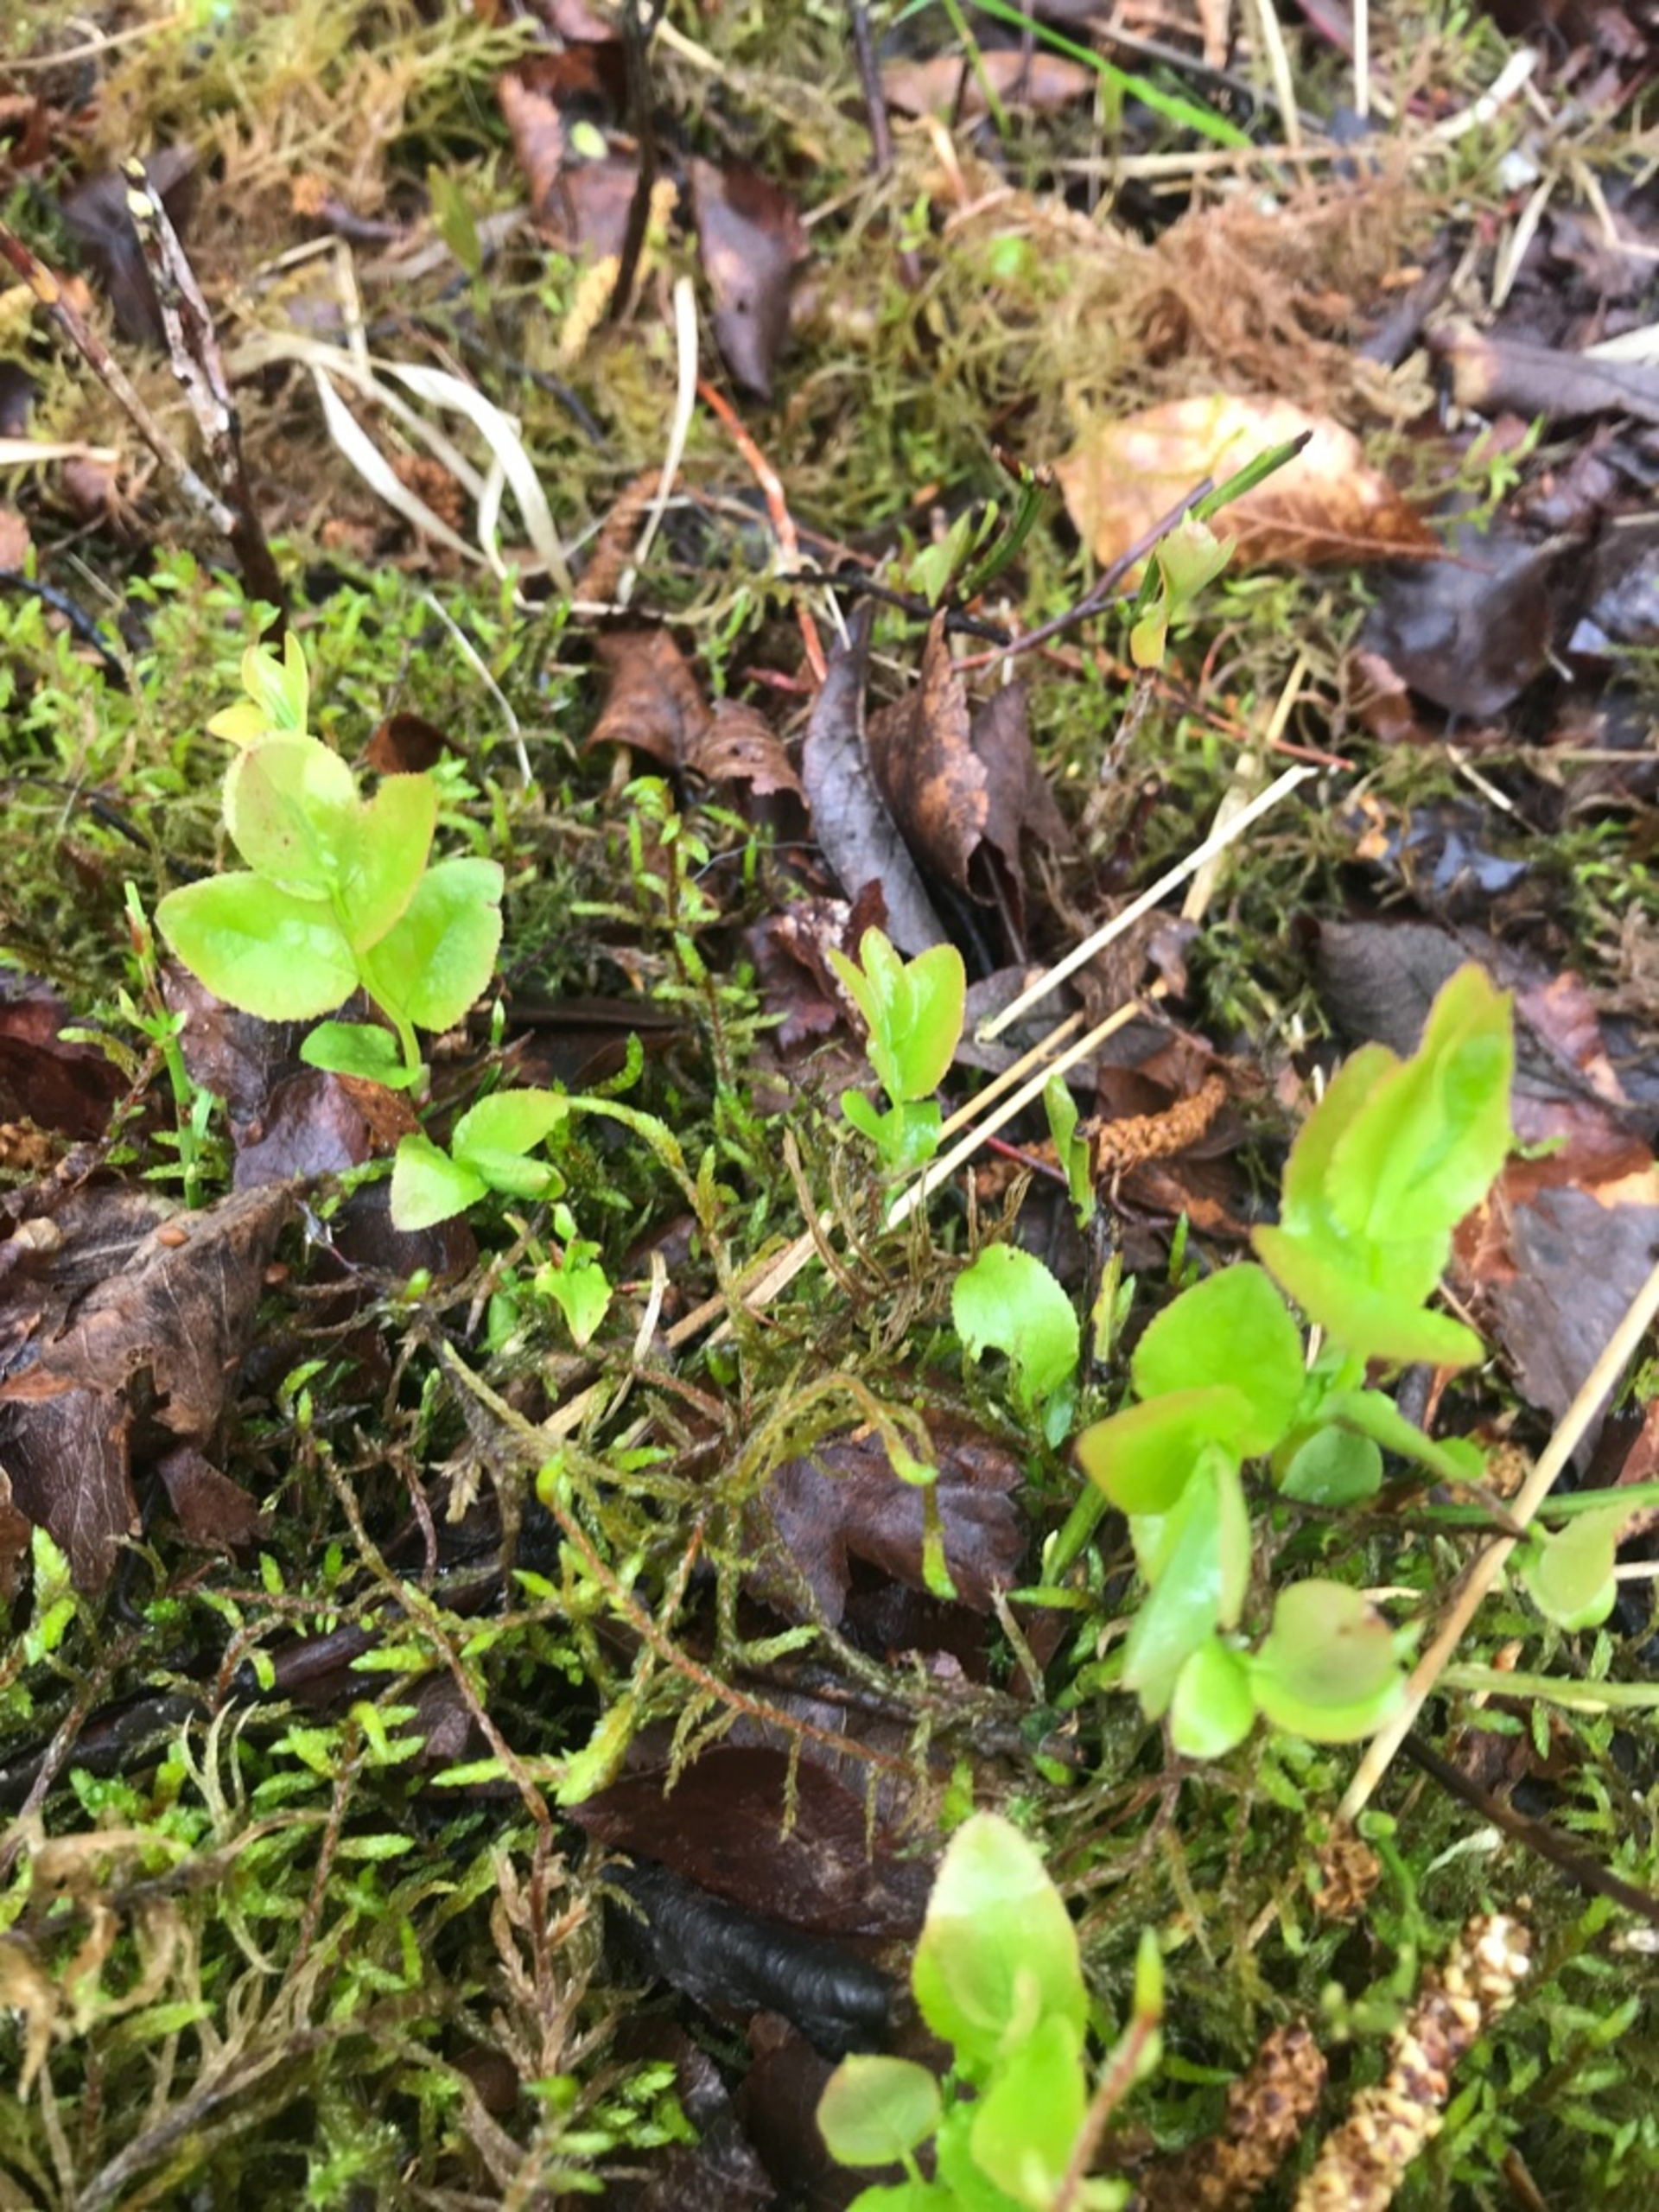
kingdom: Plantae
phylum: Tracheophyta
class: Magnoliopsida
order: Ericales
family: Ericaceae
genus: Vaccinium
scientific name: Vaccinium myrtillus
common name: Blåbær
